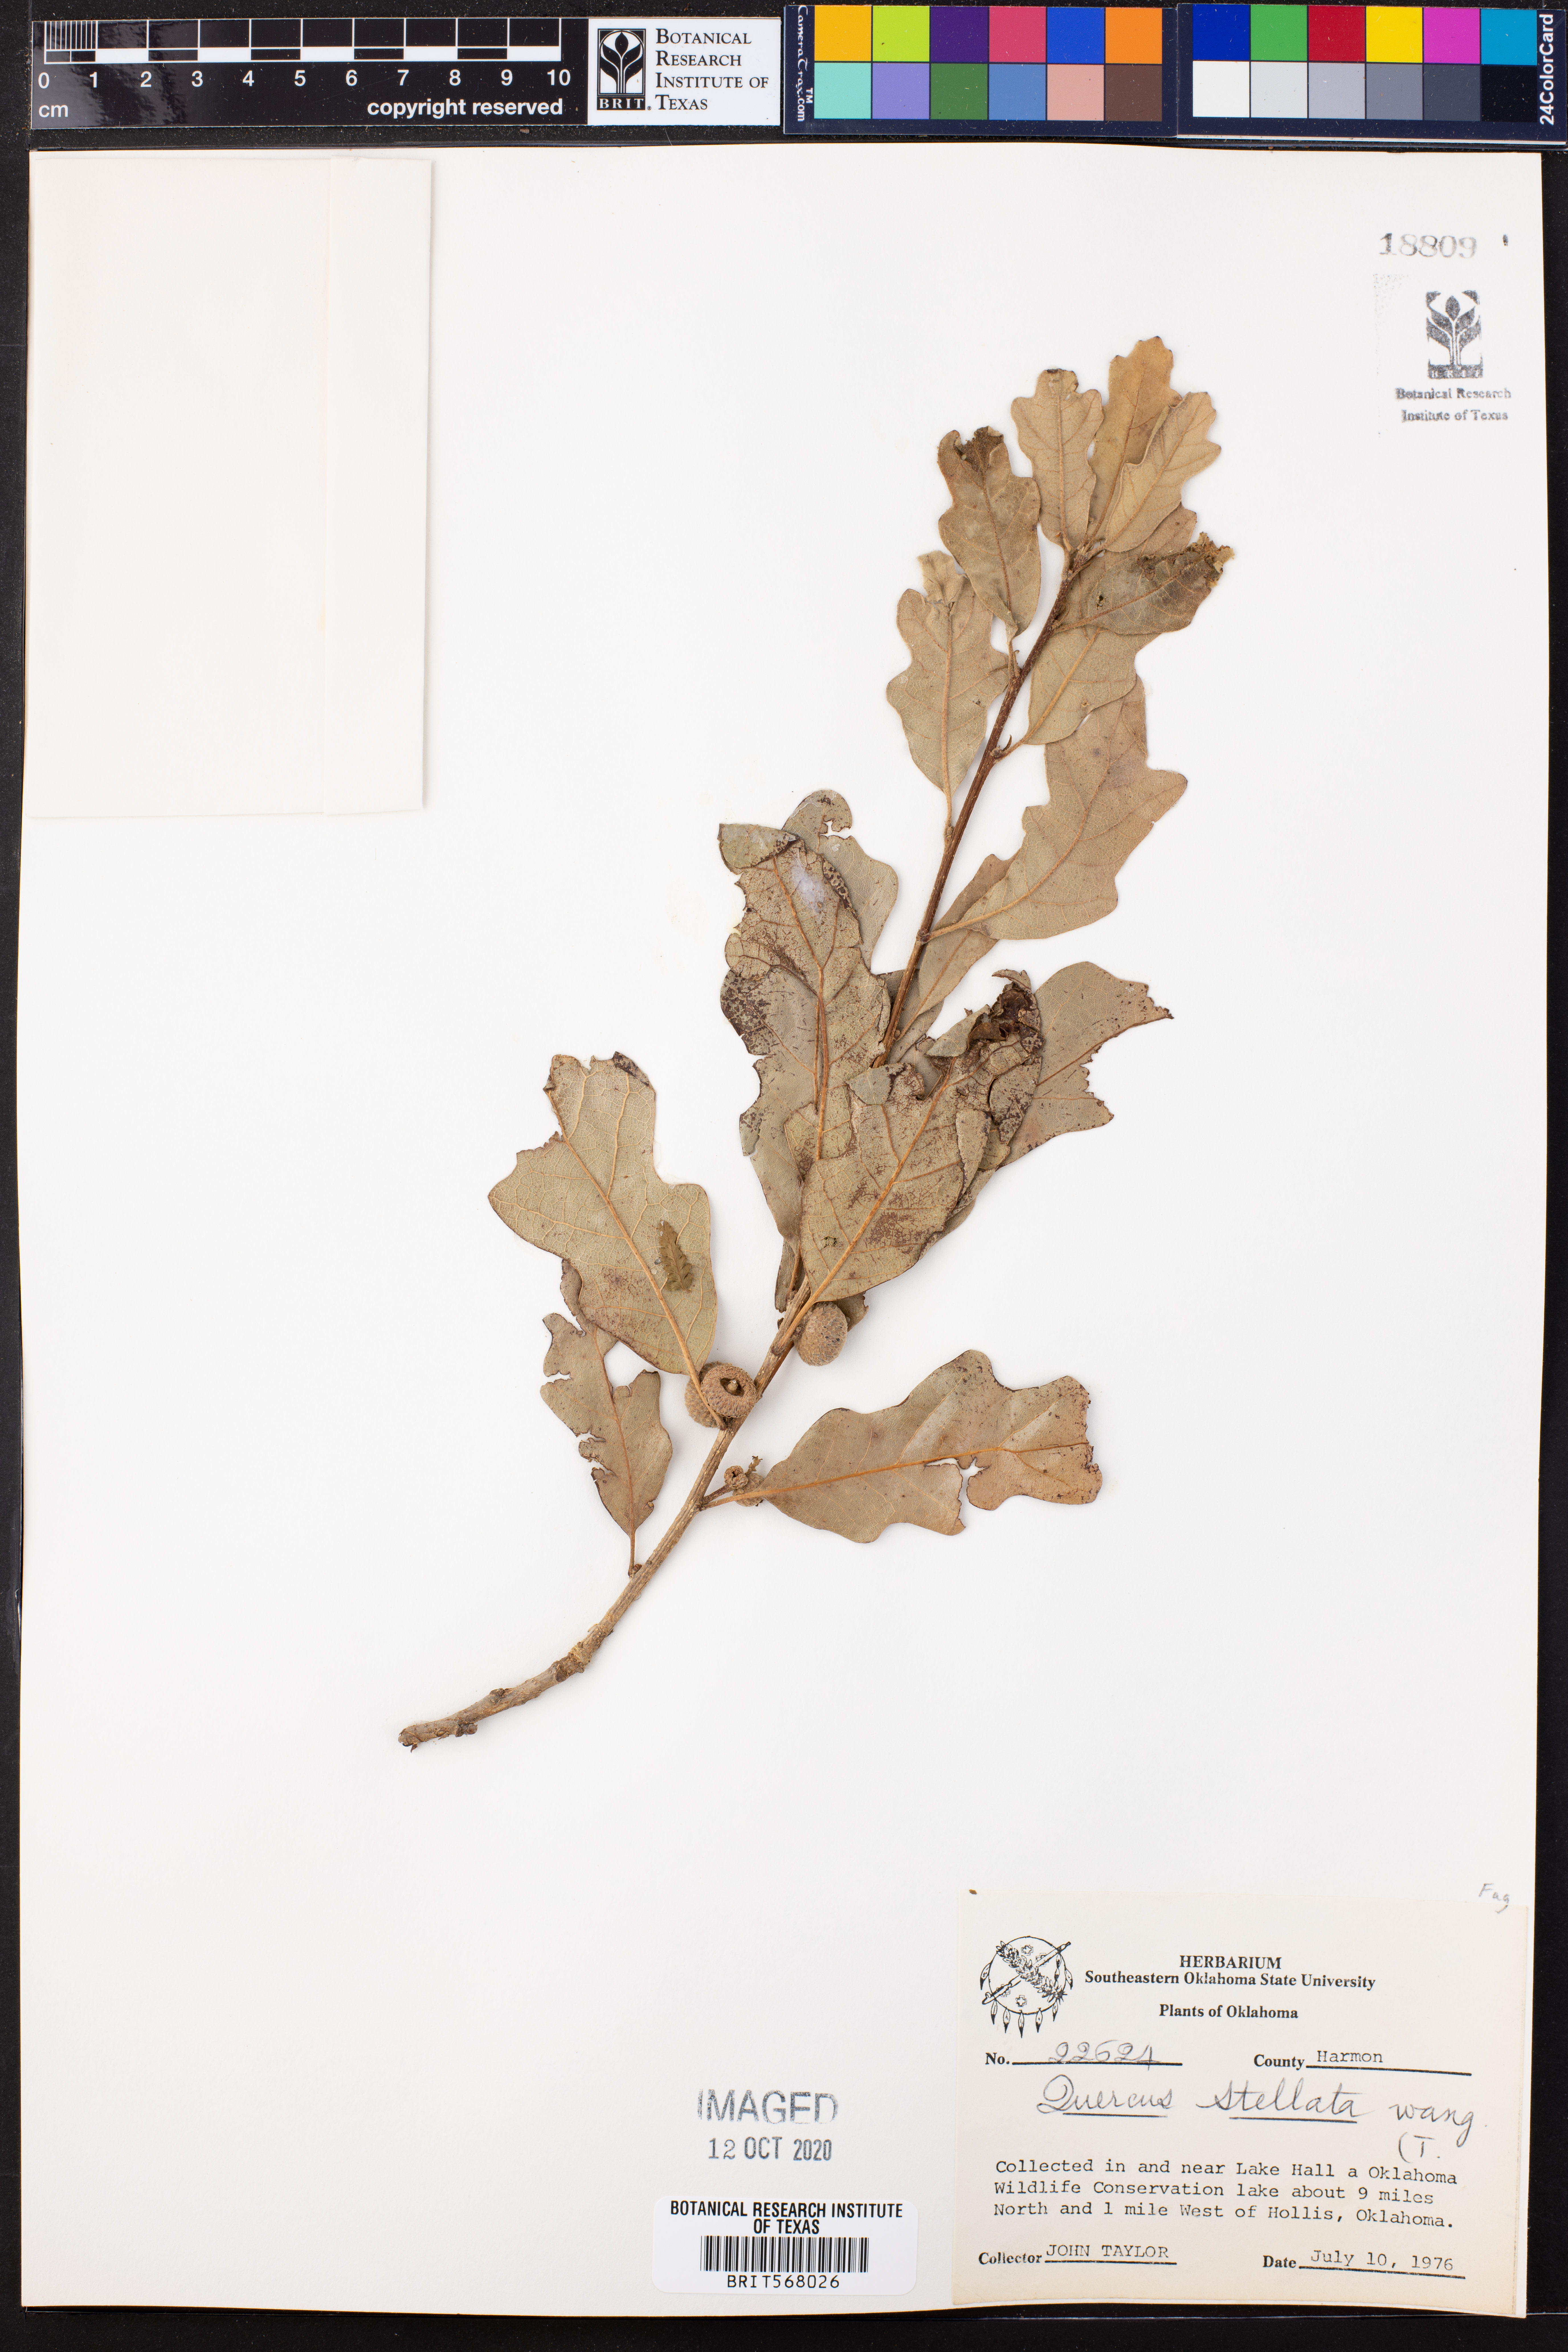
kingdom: Plantae
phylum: Tracheophyta
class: Magnoliopsida
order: Fagales
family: Fagaceae
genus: Quercus
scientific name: Quercus stellata
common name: Post oak
